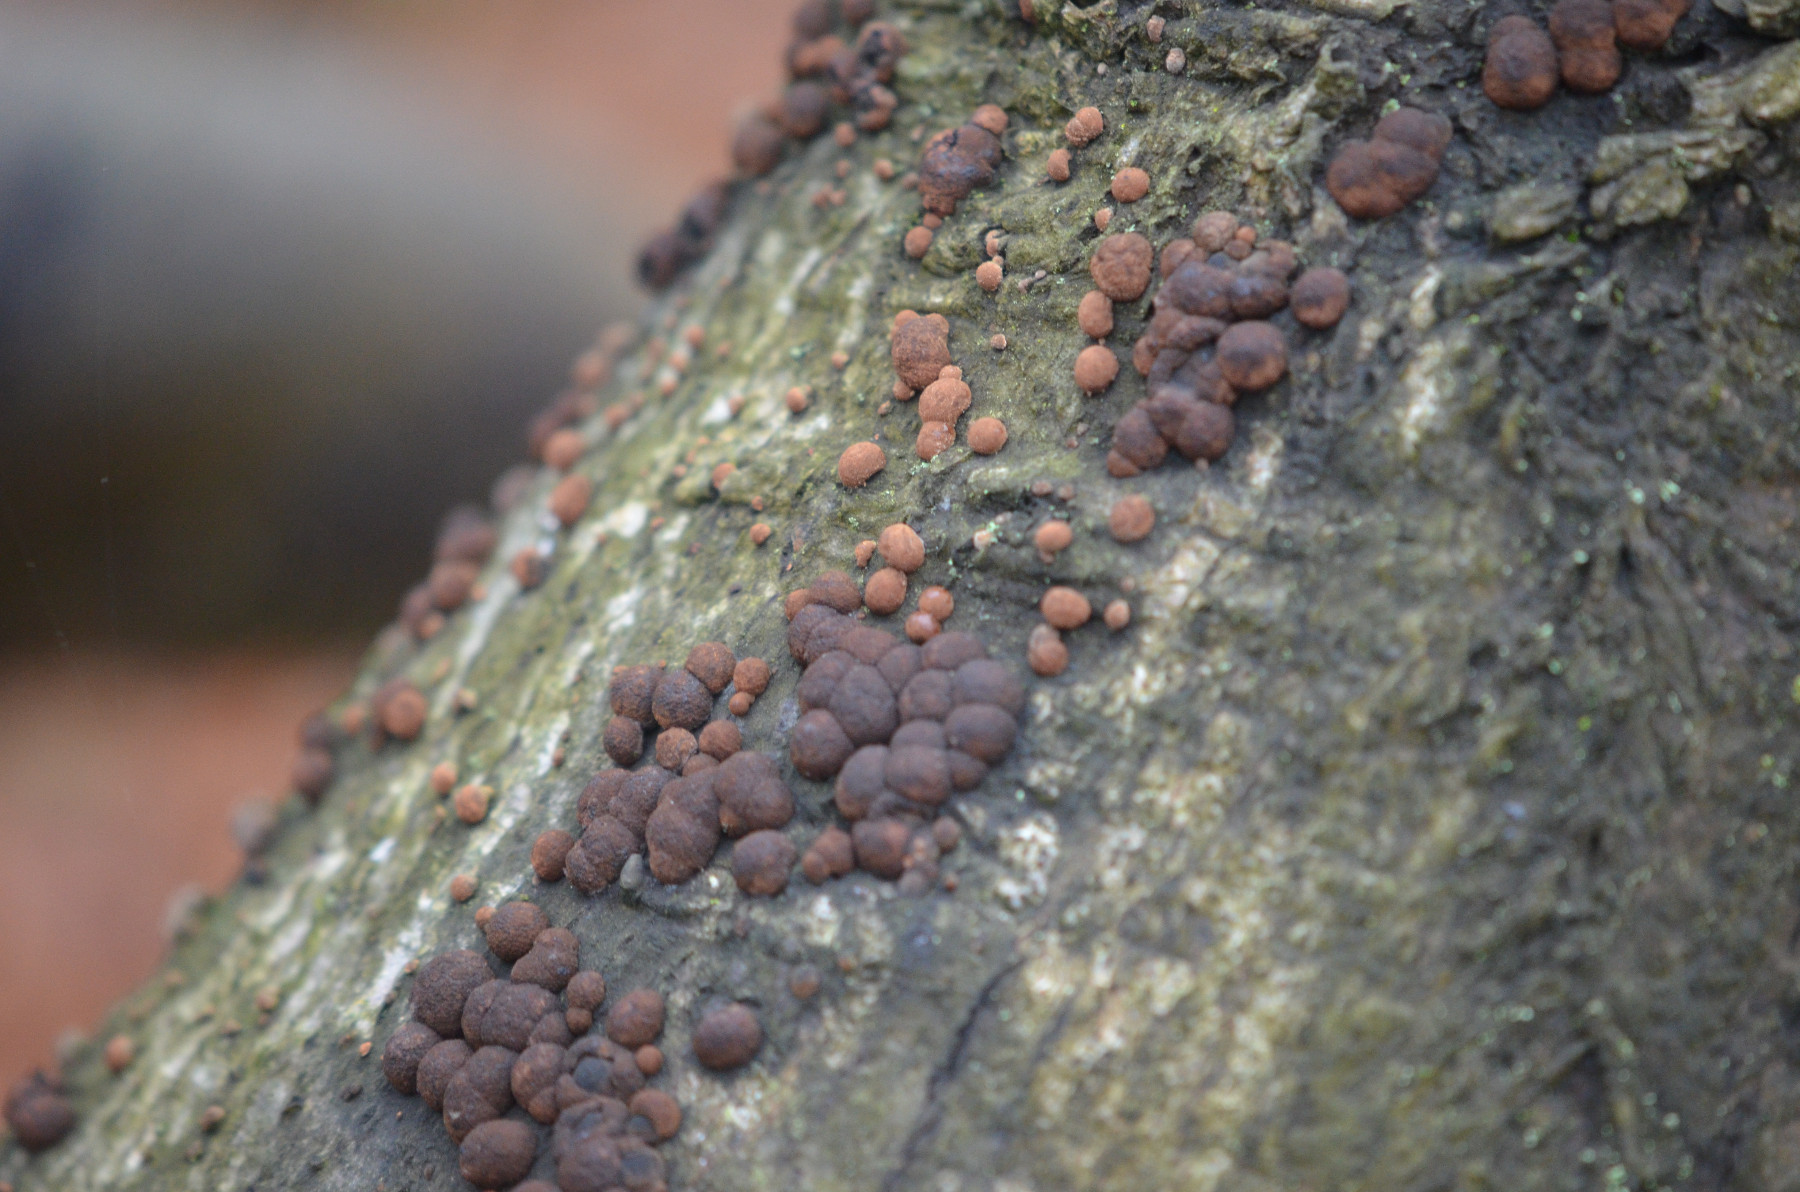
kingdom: Fungi
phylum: Ascomycota
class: Sordariomycetes
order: Xylariales
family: Hypoxylaceae
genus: Hypoxylon
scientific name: Hypoxylon fragiforme
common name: kuljordbær
